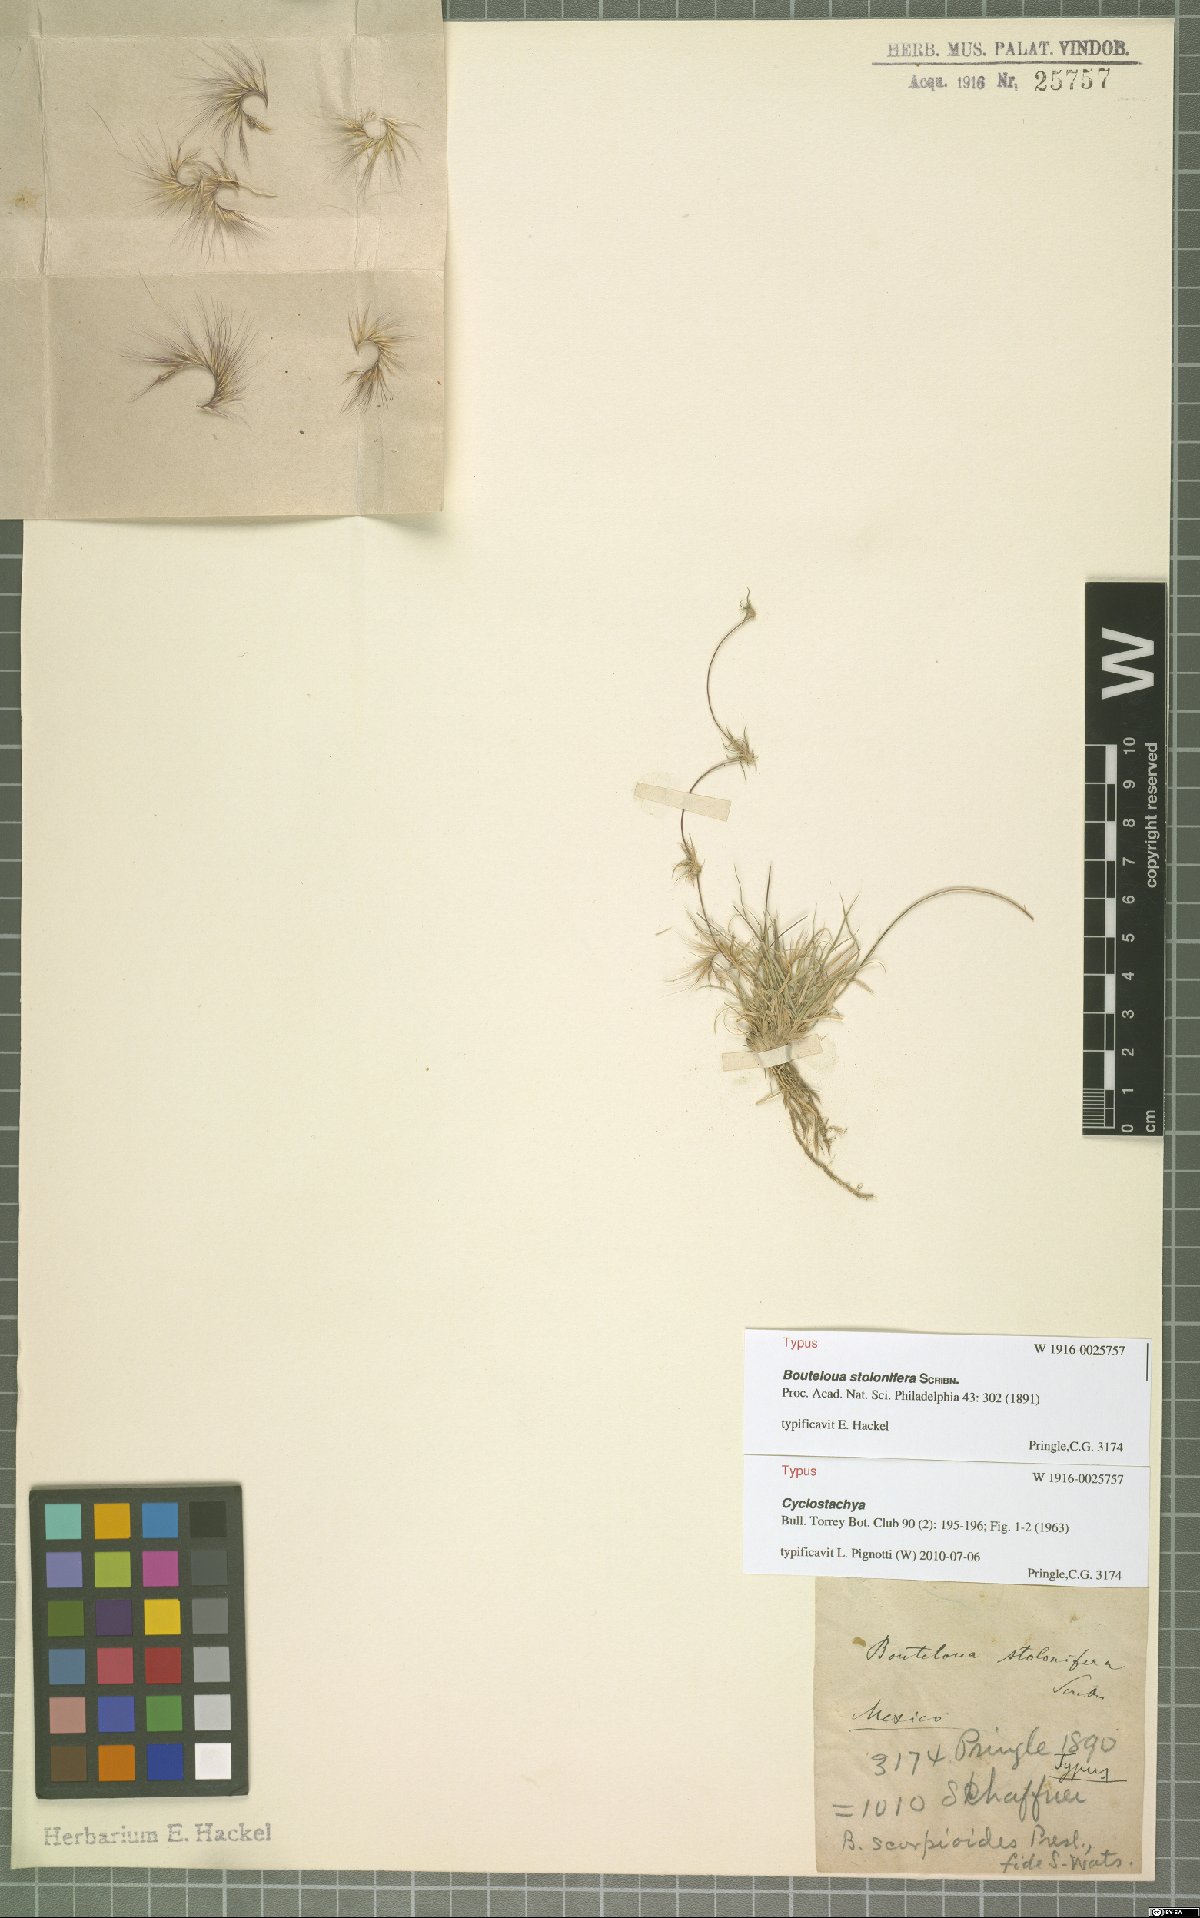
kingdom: Plantae
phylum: Tracheophyta
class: Liliopsida
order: Poales
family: Poaceae
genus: Bouteloua
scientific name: Bouteloua stolonifera
